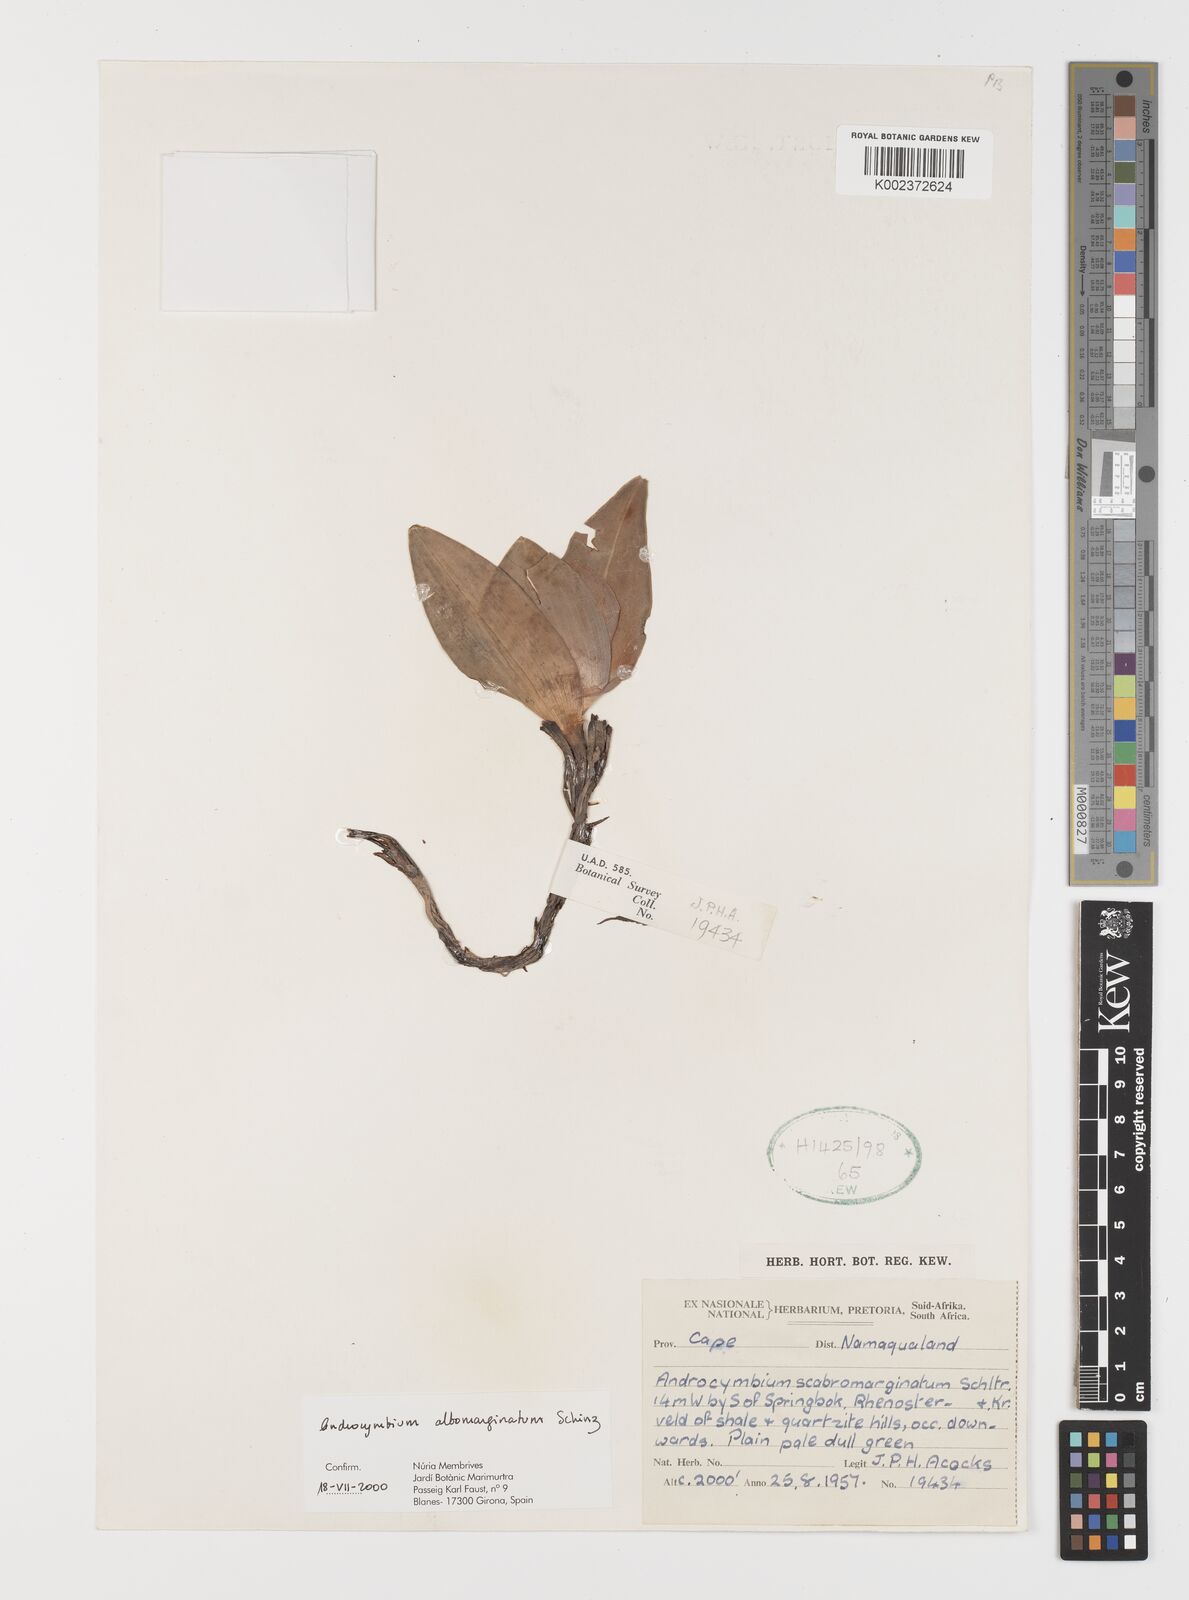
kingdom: Plantae
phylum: Tracheophyta
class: Liliopsida
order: Liliales
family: Colchicaceae
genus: Colchicum
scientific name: Colchicum albomarginatum
